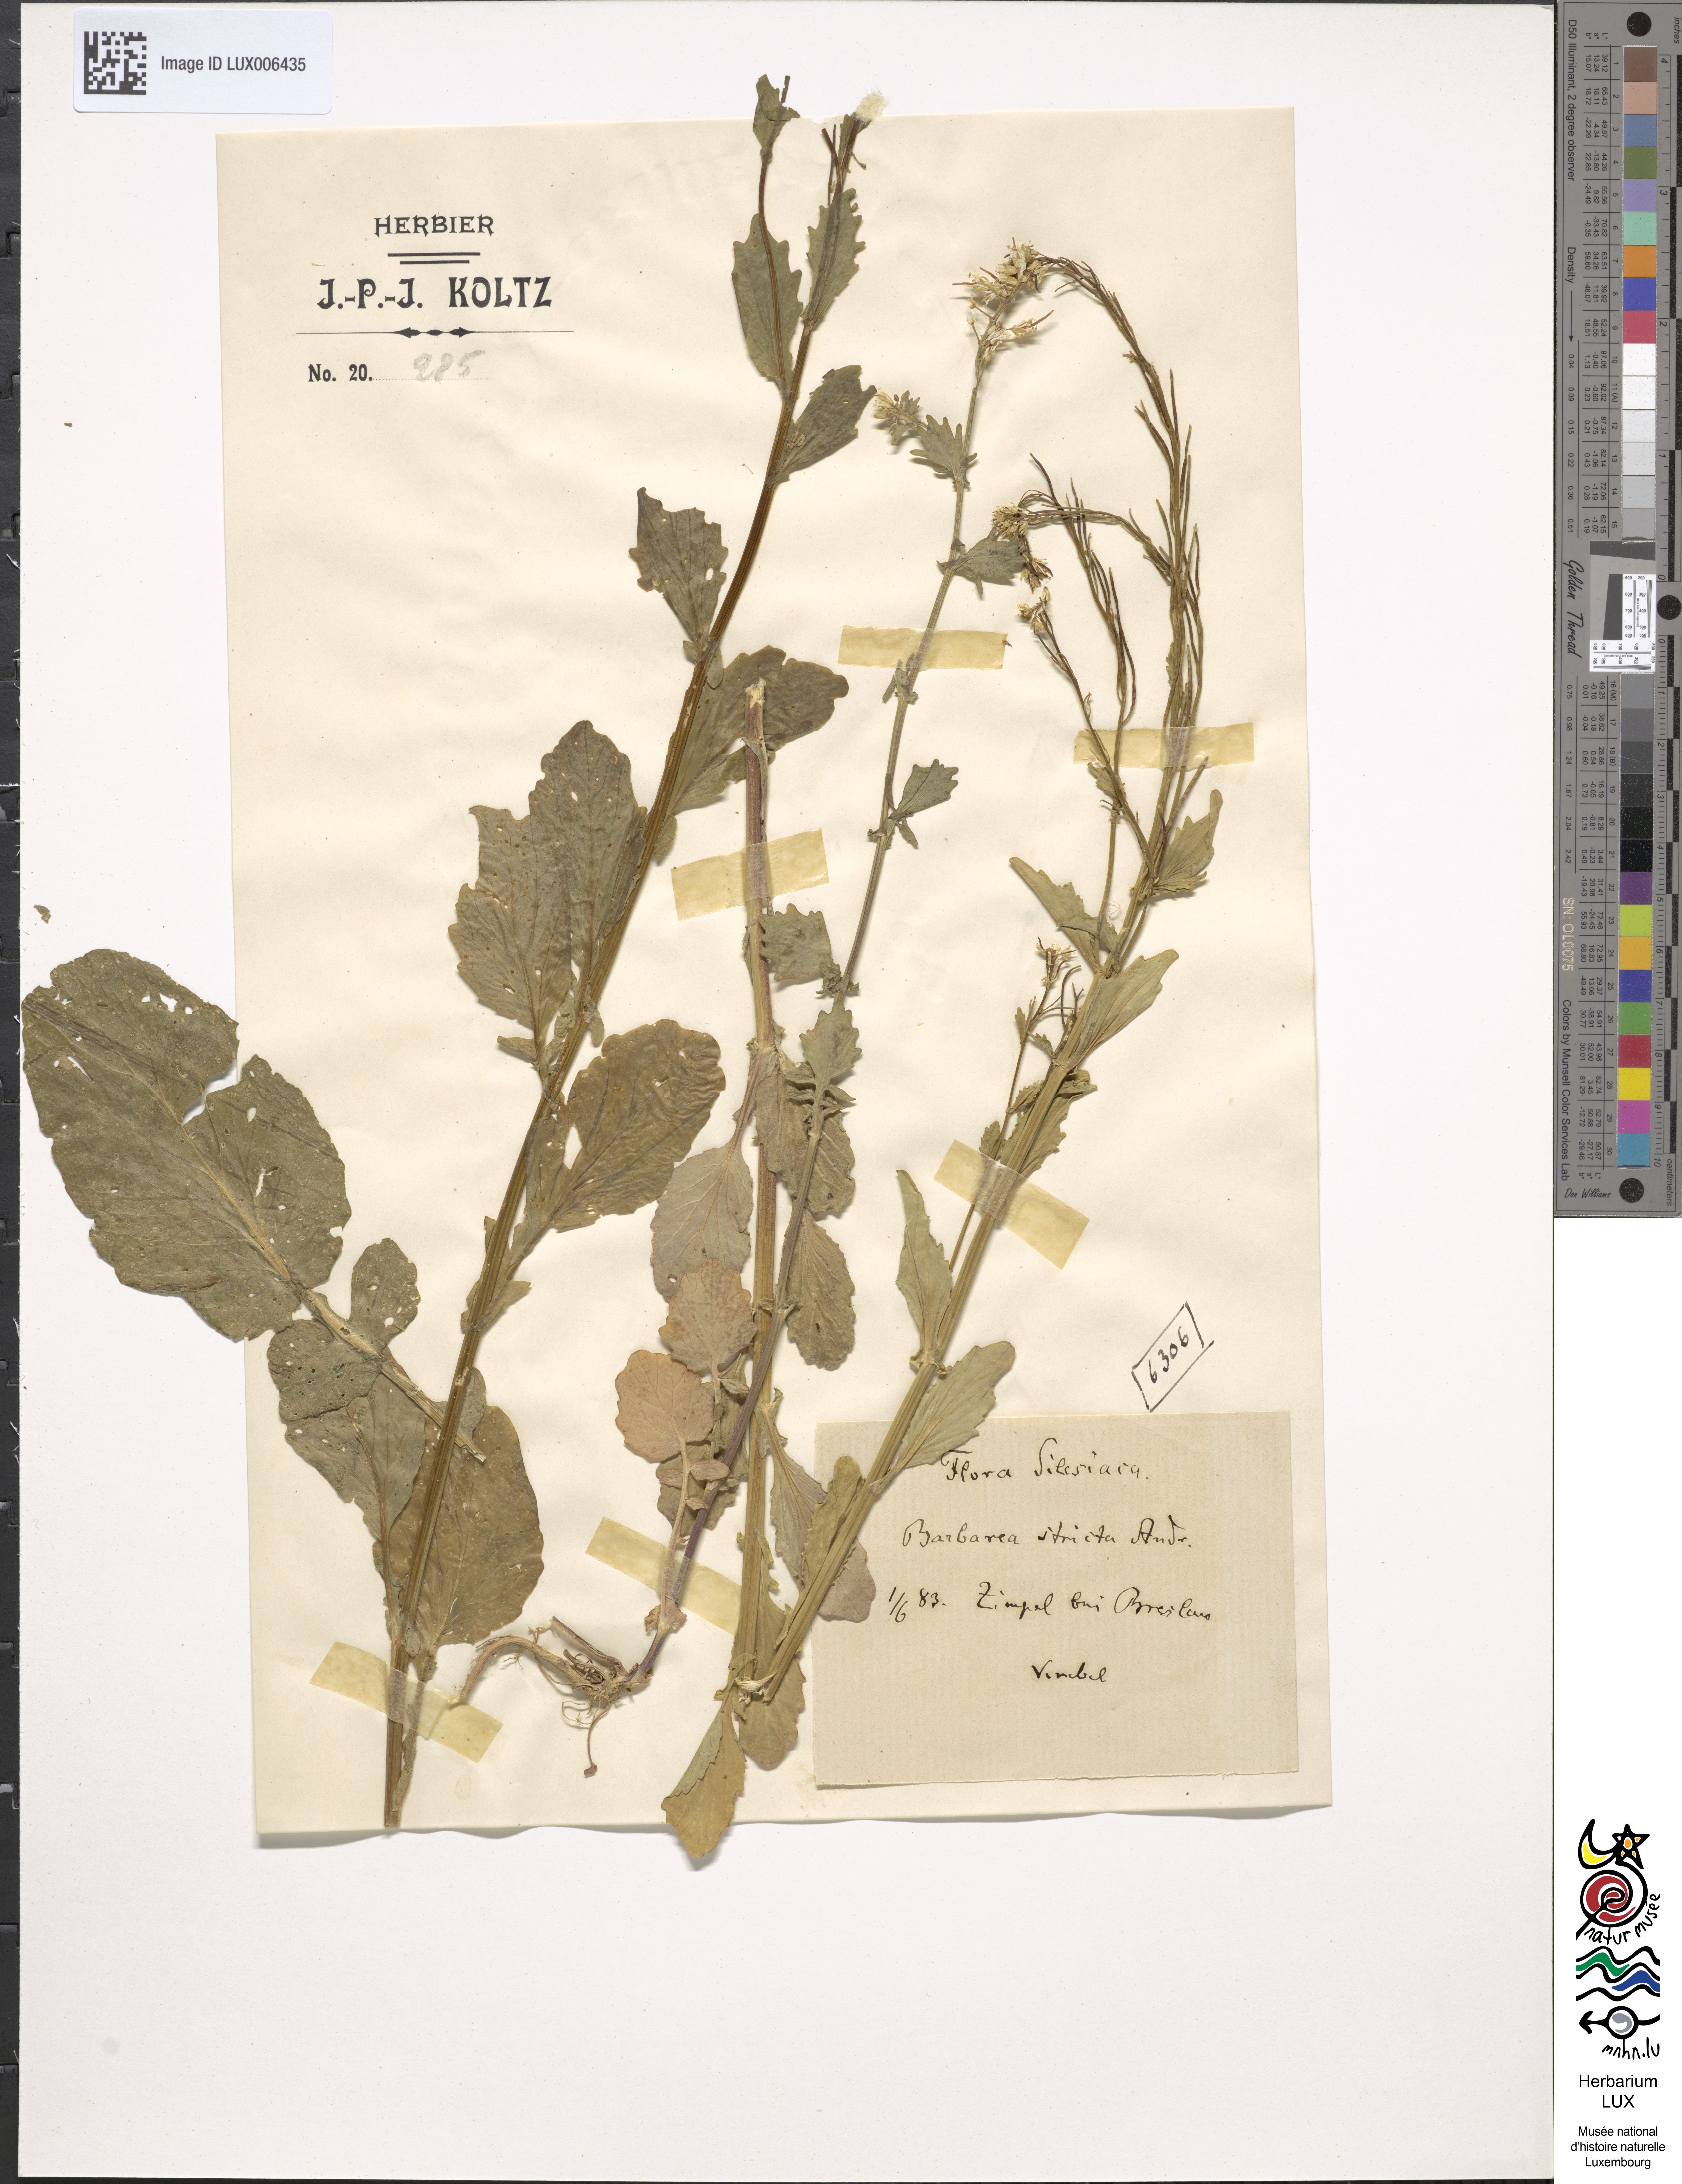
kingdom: Plantae
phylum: Tracheophyta
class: Magnoliopsida
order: Brassicales
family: Brassicaceae
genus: Barbarea
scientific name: Barbarea vulgaris
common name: Cressy-greens
